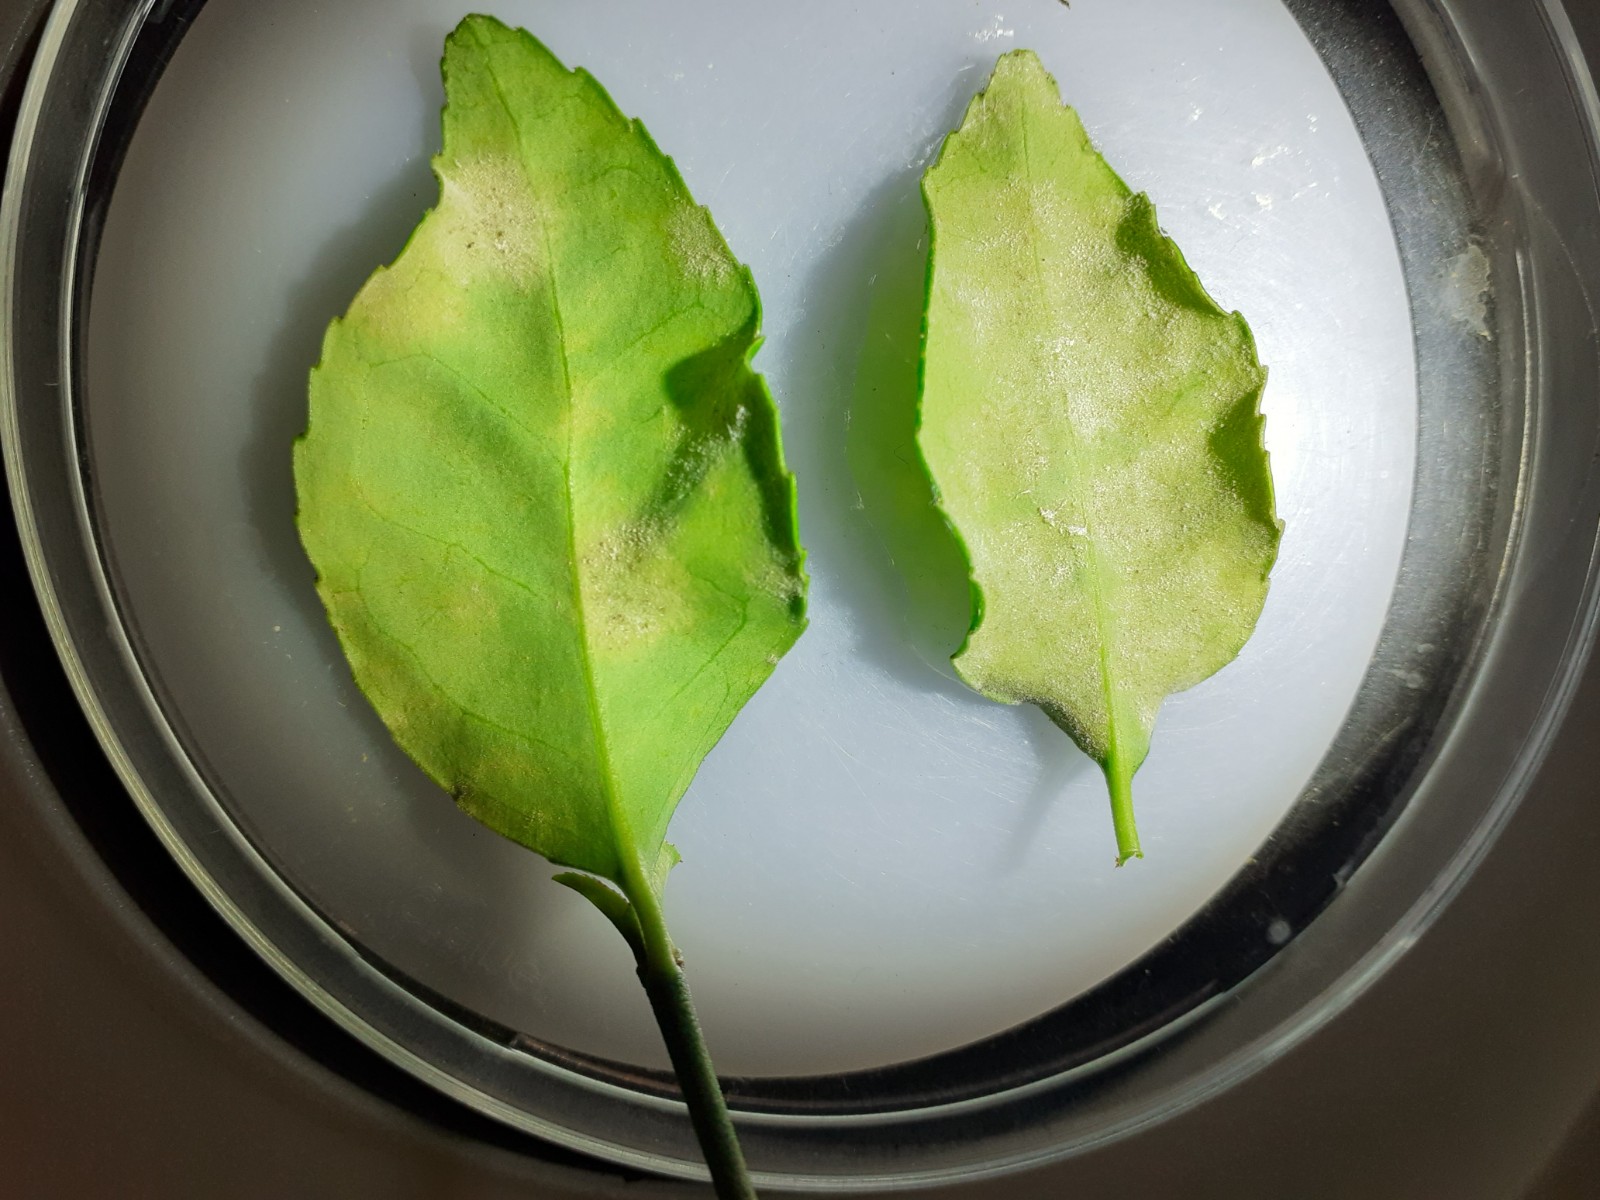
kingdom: Fungi
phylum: Ascomycota
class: Leotiomycetes
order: Helotiales
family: Erysiphaceae
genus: Erysiphe
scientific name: Erysiphe euonymicola
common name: Spindletree mildew
